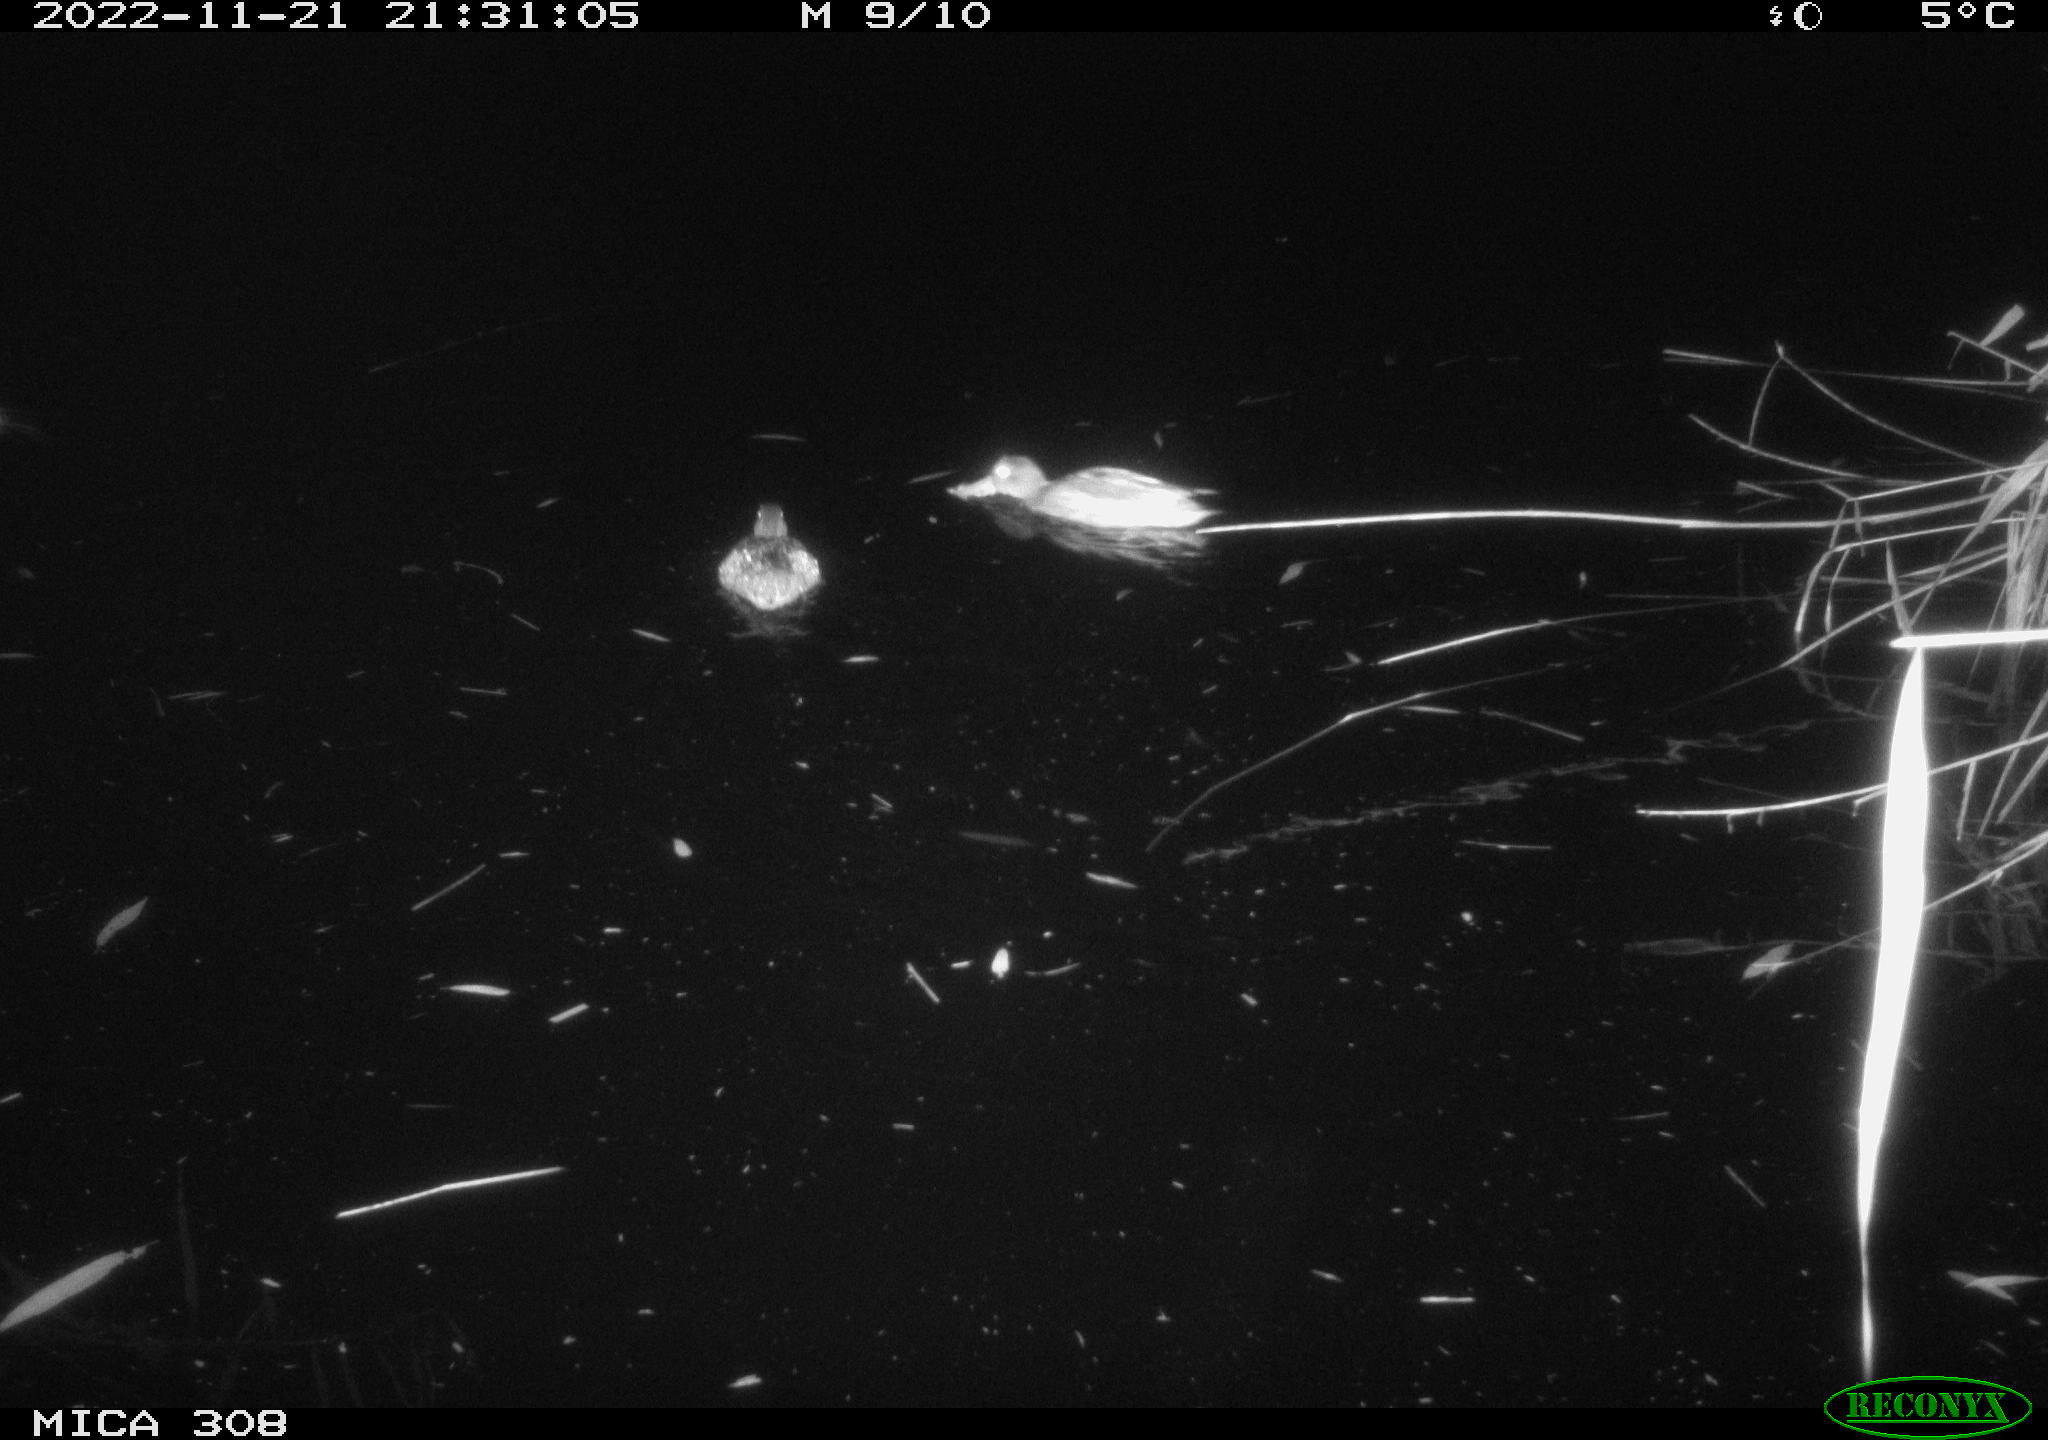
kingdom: Animalia
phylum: Chordata
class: Aves
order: Anseriformes
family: Anatidae
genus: Anas
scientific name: Anas
